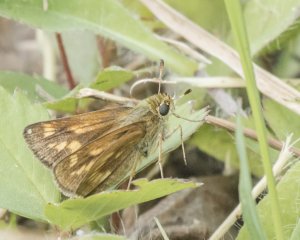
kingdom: Animalia
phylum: Arthropoda
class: Insecta
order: Lepidoptera
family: Hesperiidae
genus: Polites
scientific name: Polites themistocles
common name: Tawny-edged Skipper
